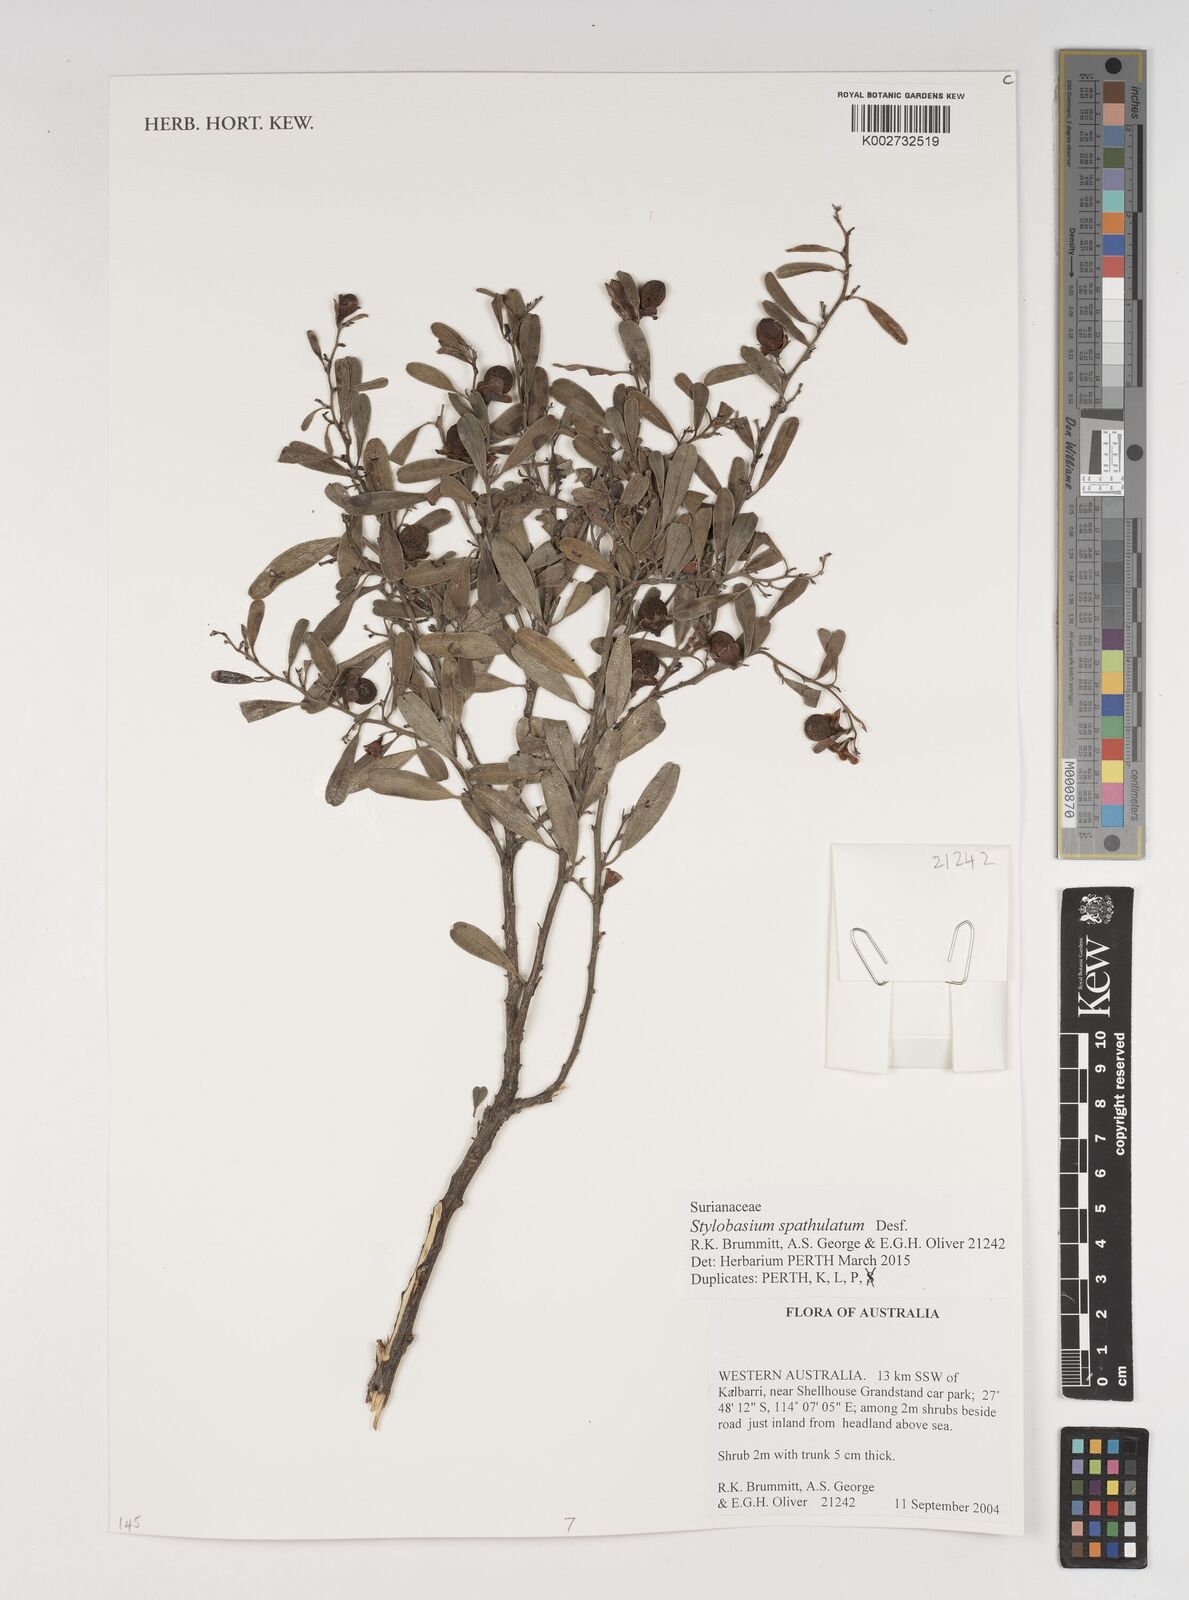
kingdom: Plantae
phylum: Tracheophyta
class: Magnoliopsida
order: Fabales
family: Surianaceae
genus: Stylobasium
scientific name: Stylobasium spathulatum
